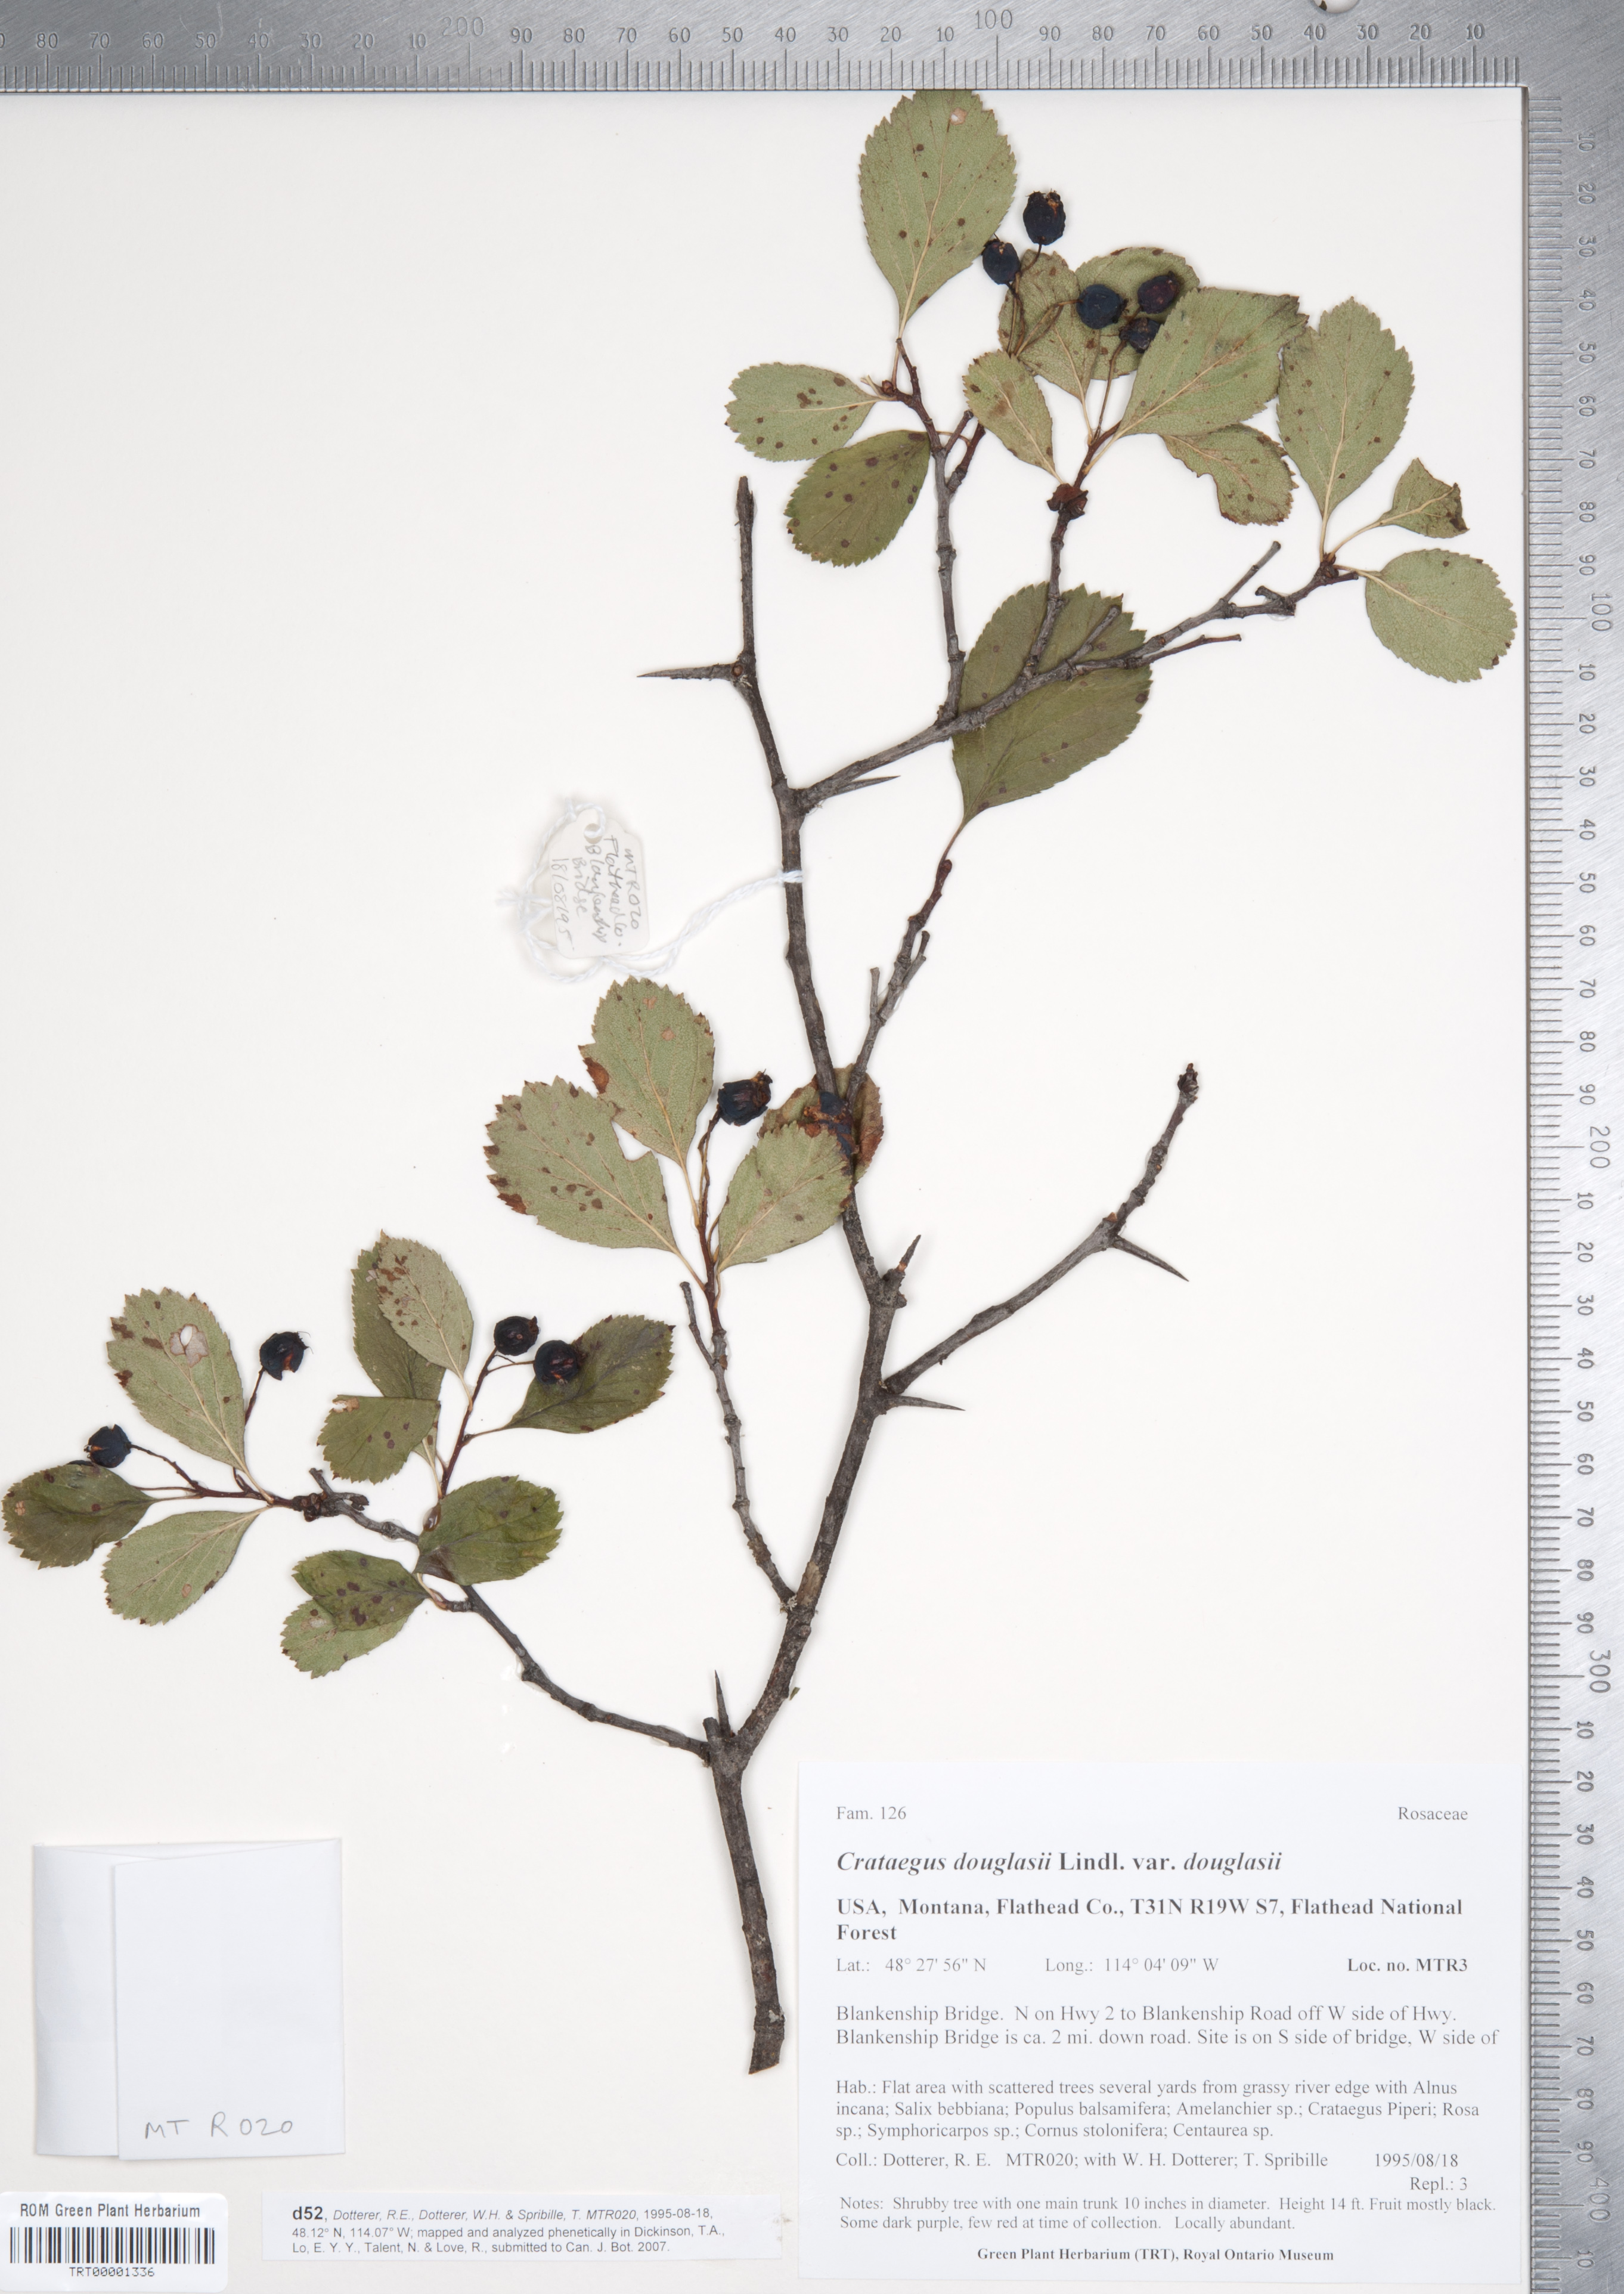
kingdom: Plantae
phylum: Tracheophyta
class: Magnoliopsida
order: Rosales
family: Rosaceae
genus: Crataegus
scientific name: Crataegus douglasii
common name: Black hawthorn
